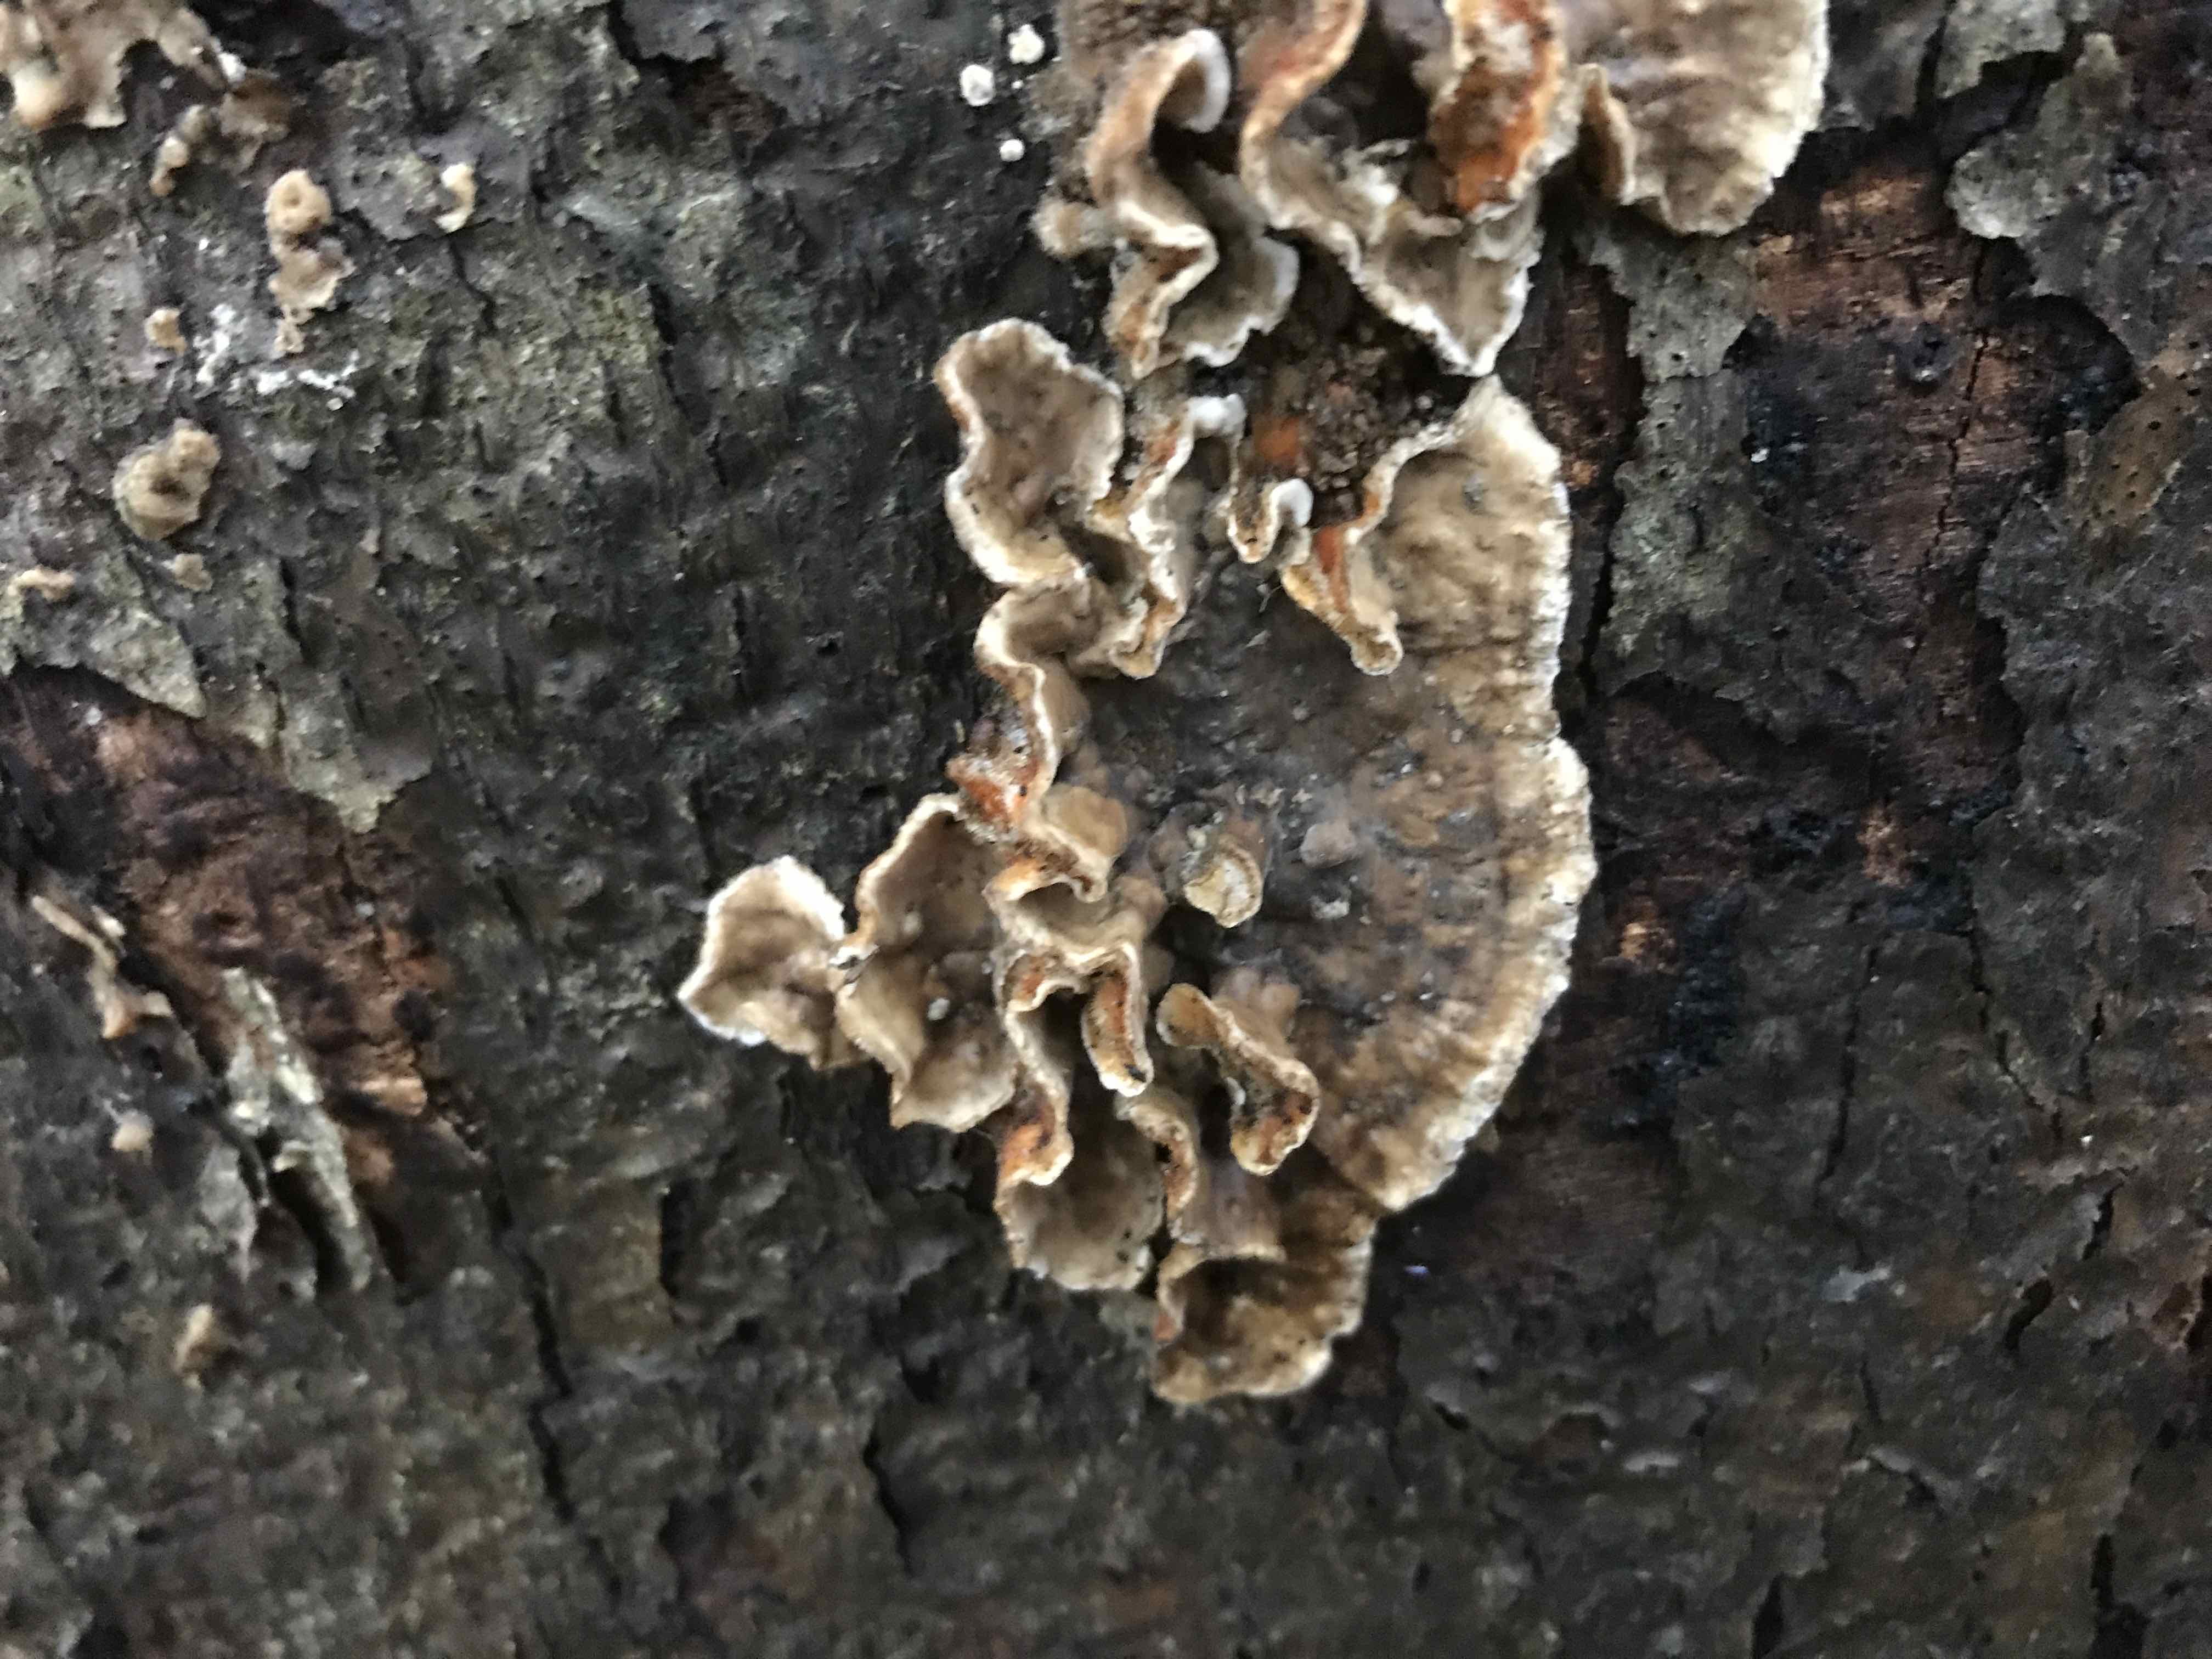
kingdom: Fungi
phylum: Basidiomycota
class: Agaricomycetes
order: Russulales
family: Stereaceae
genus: Stereum
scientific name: Stereum rugosum
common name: rynket lædersvamp
